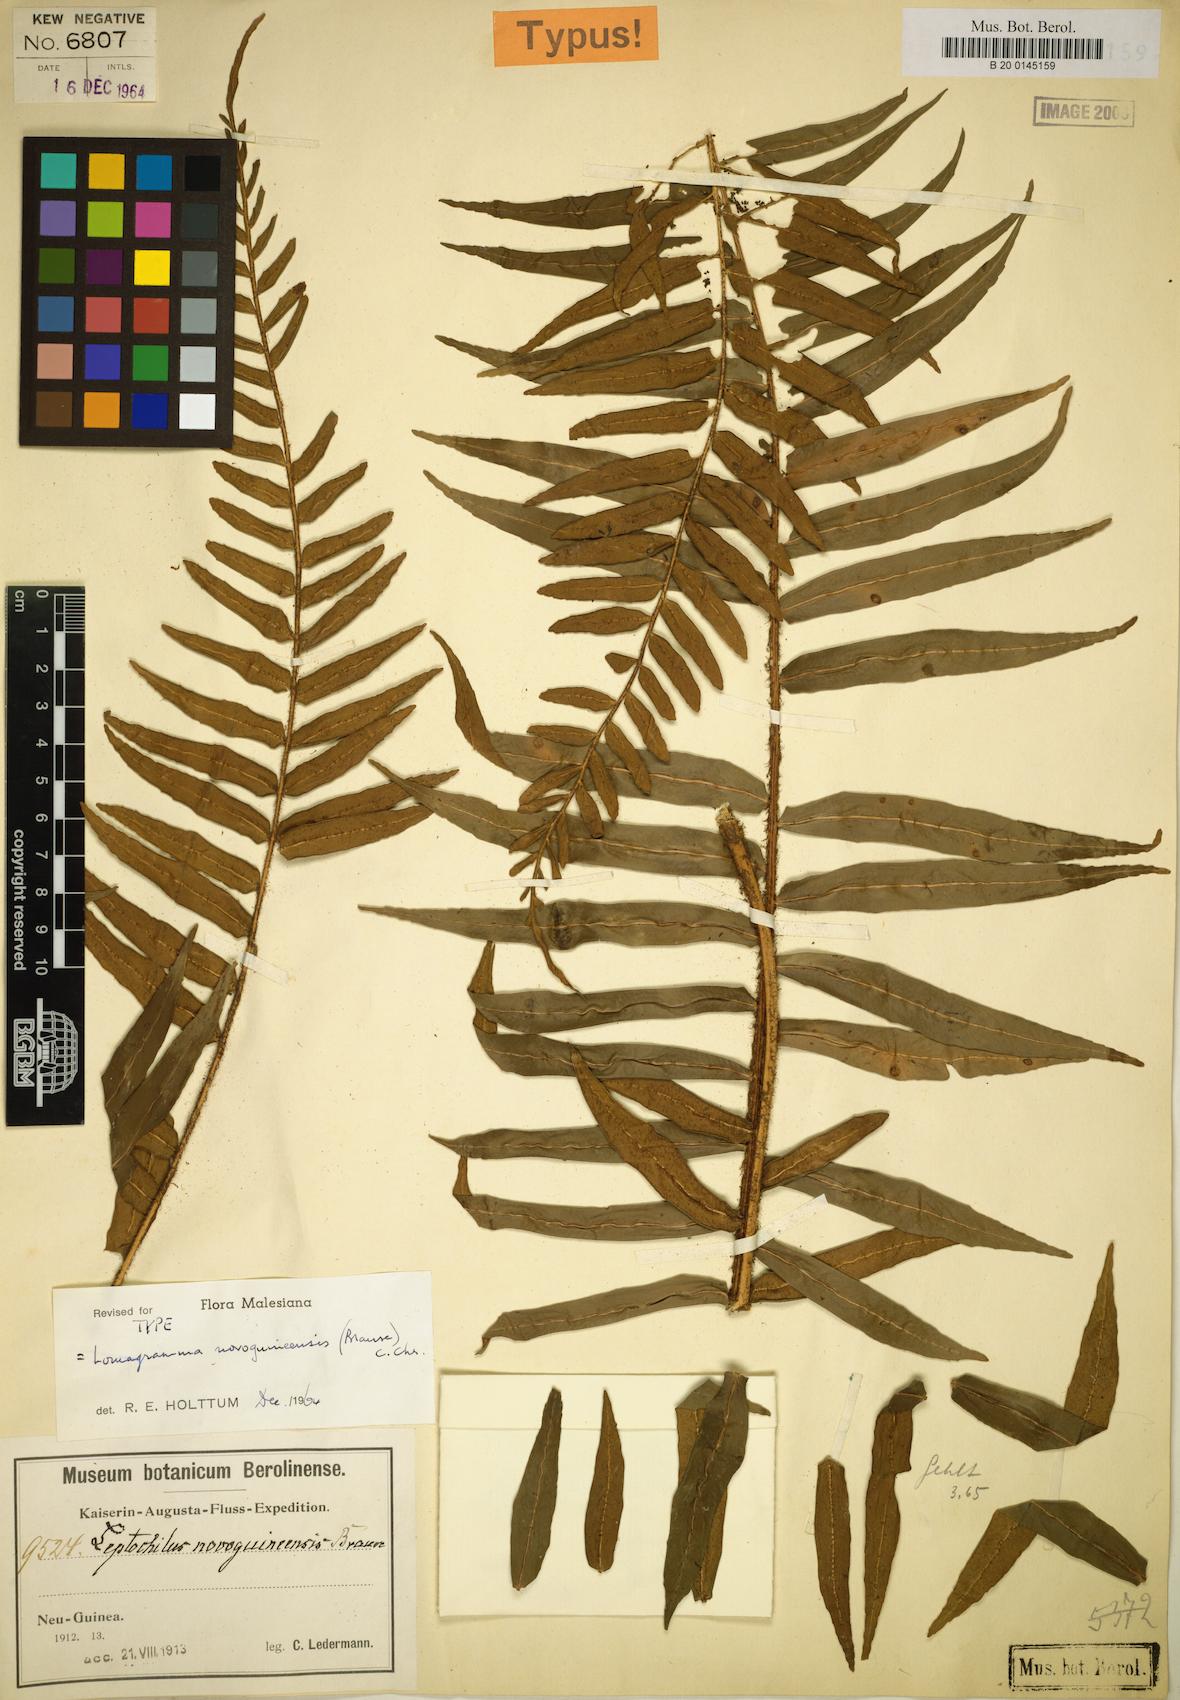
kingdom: Plantae
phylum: Tracheophyta
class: Polypodiopsida
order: Polypodiales
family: Dryopteridaceae
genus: Lomagramma
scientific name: Lomagramma novoguineensis
